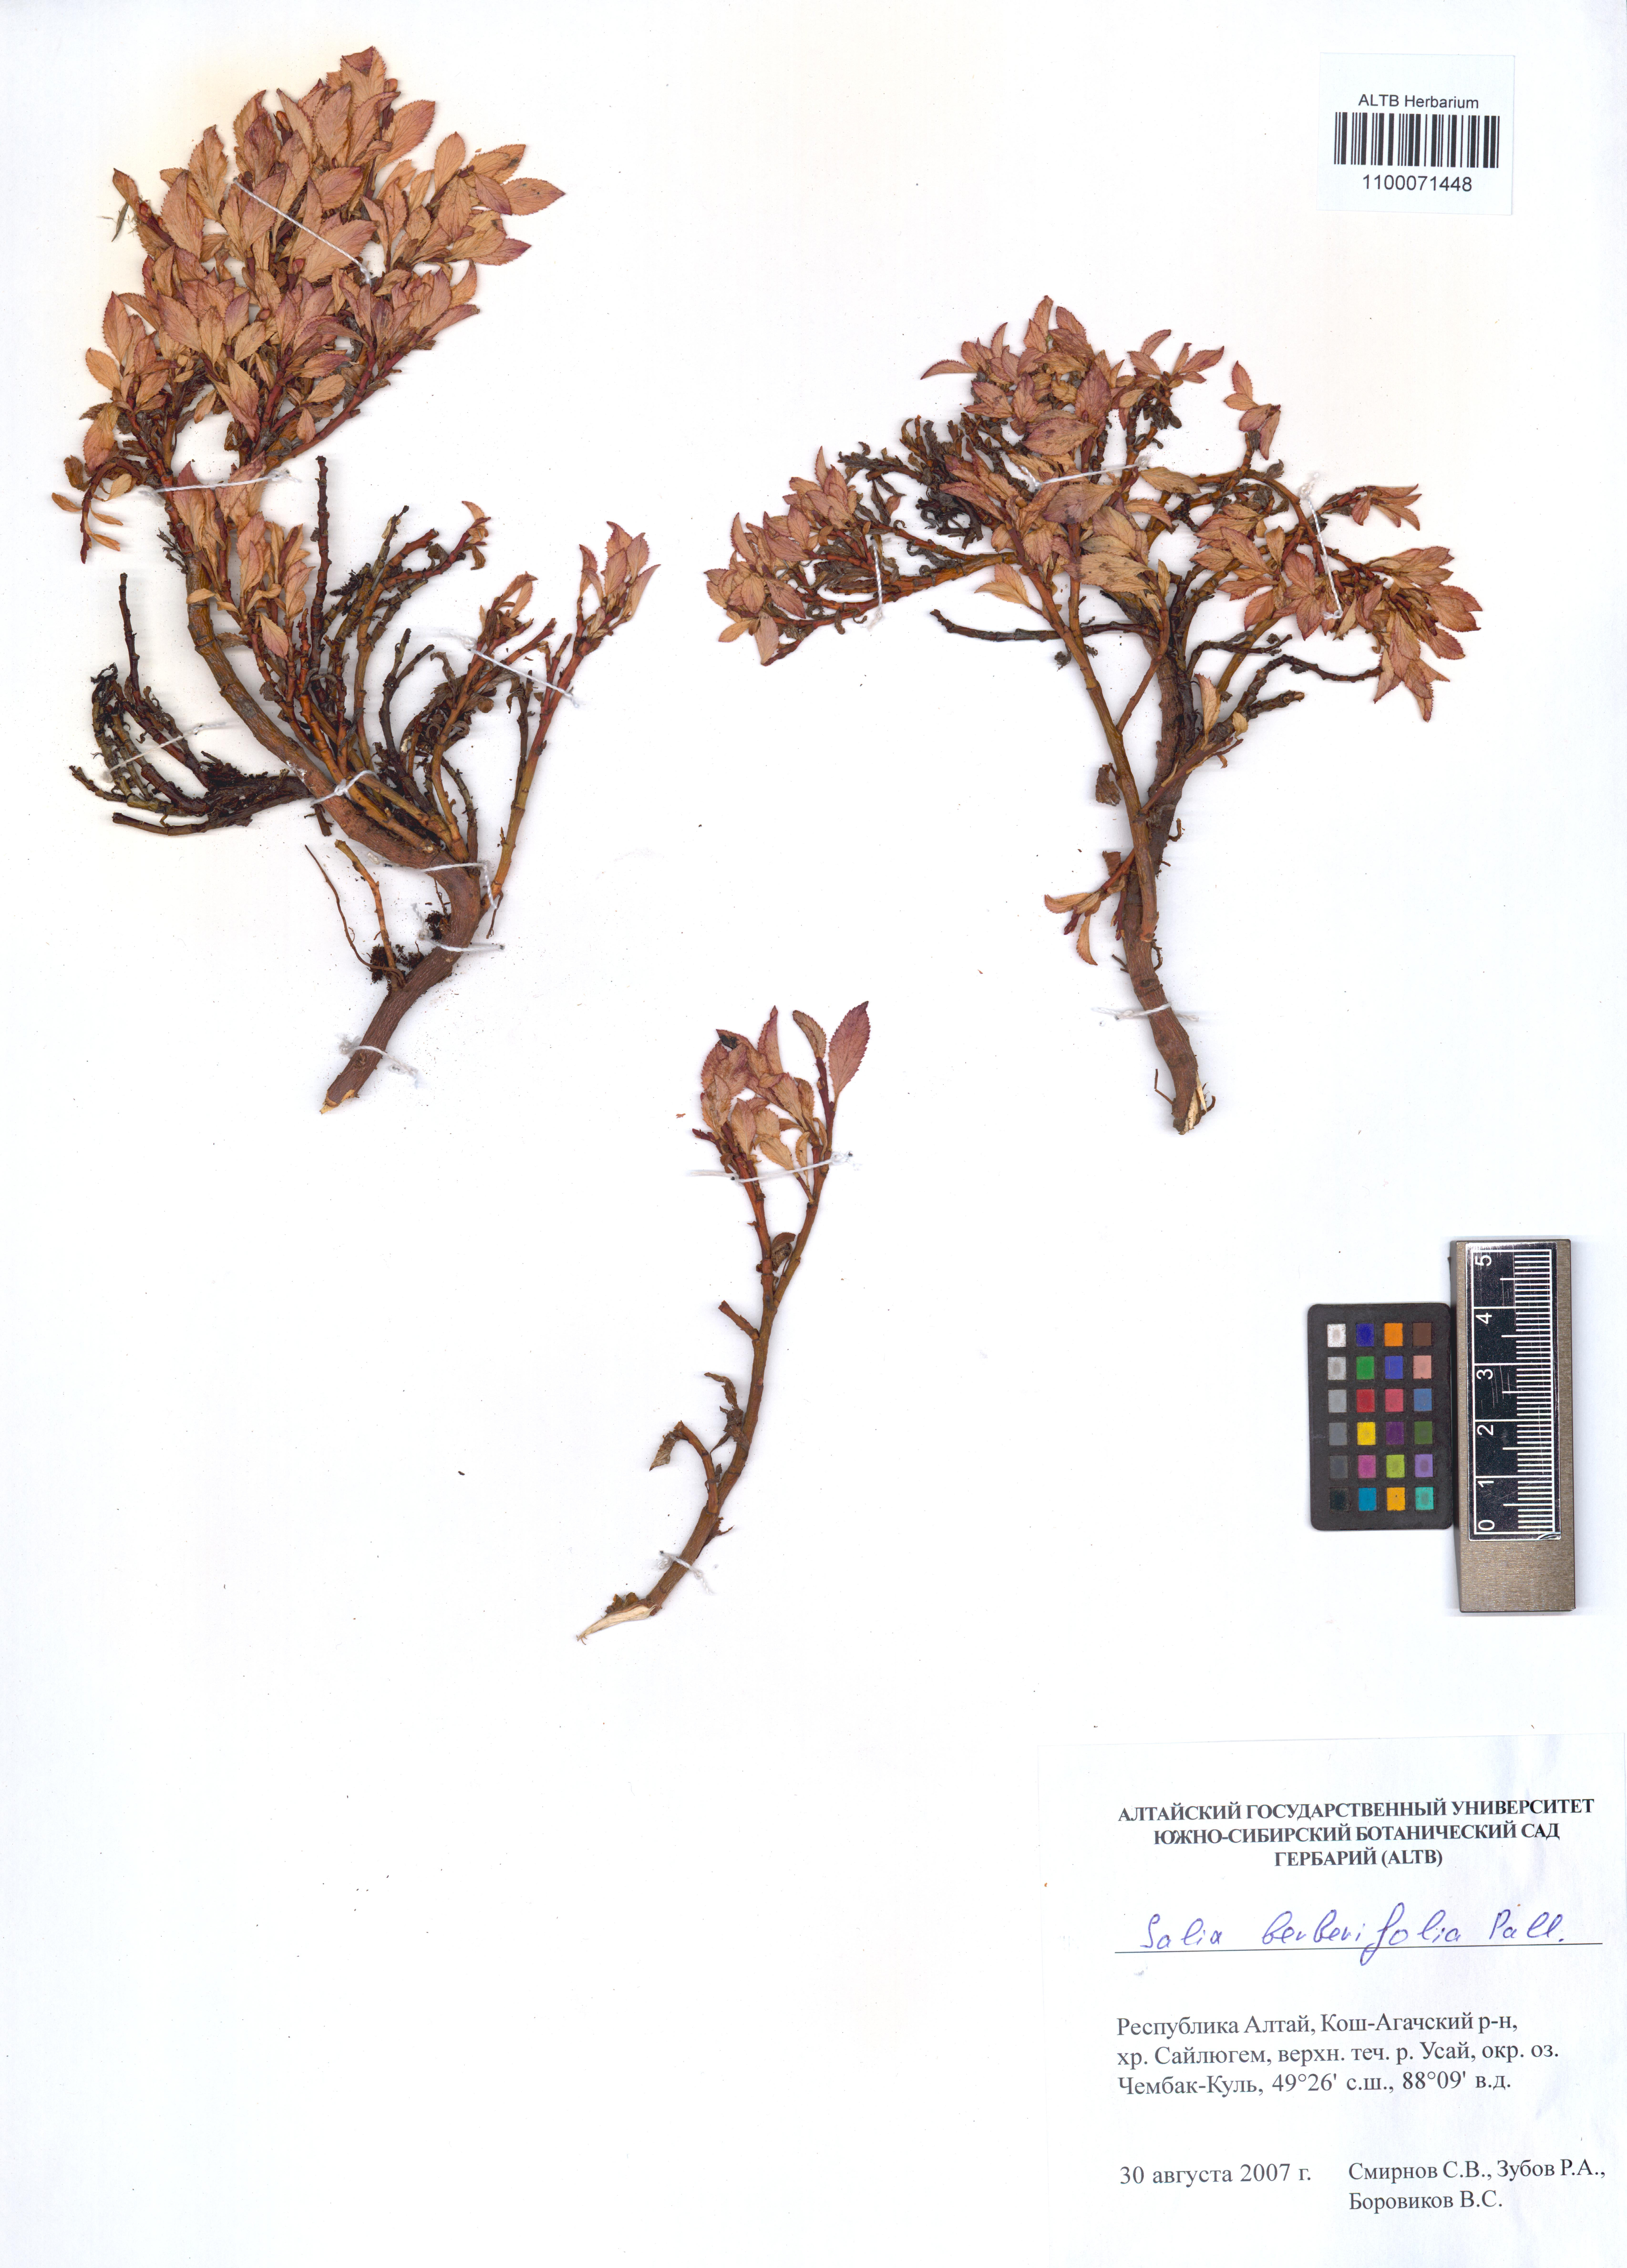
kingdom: Plantae
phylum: Tracheophyta
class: Magnoliopsida
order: Malpighiales
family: Salicaceae
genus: Salix
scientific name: Salix berberifolia
